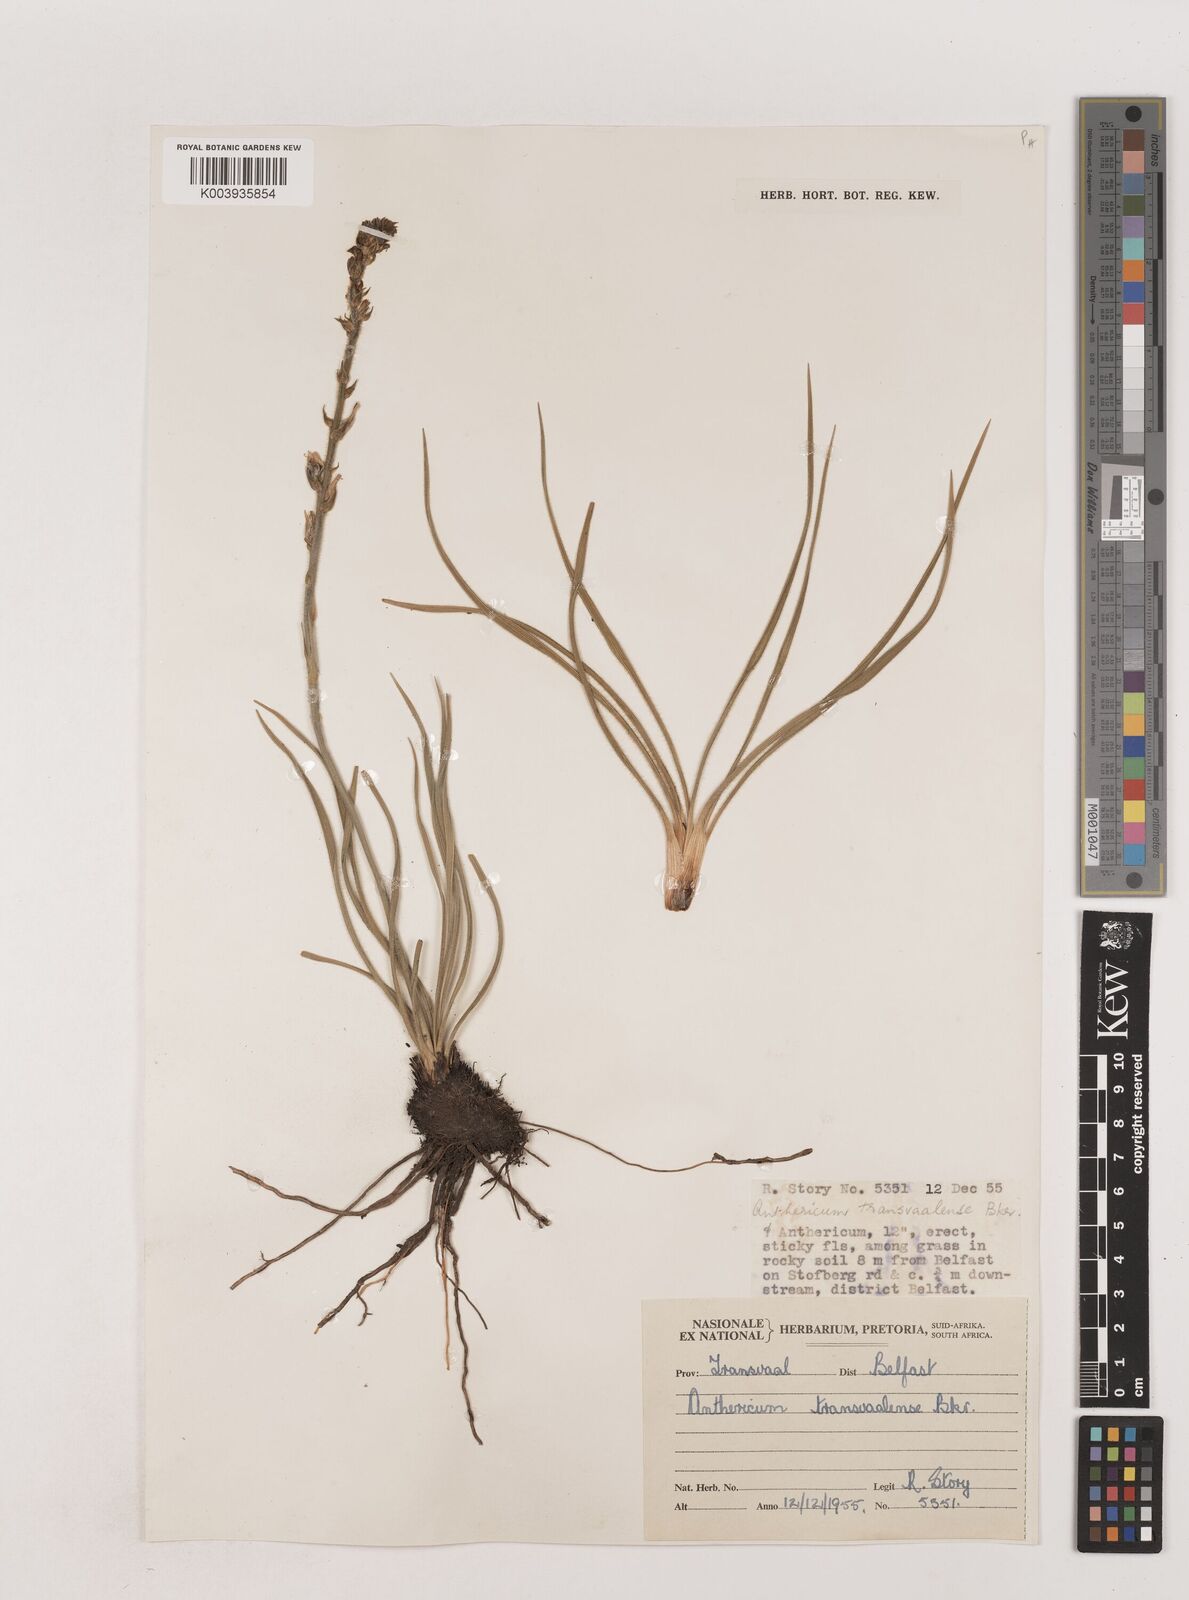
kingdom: Plantae
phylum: Tracheophyta
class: Liliopsida
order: Asparagales
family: Asparagaceae
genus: Chlorophytum
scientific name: Chlorophytum transvaalense
